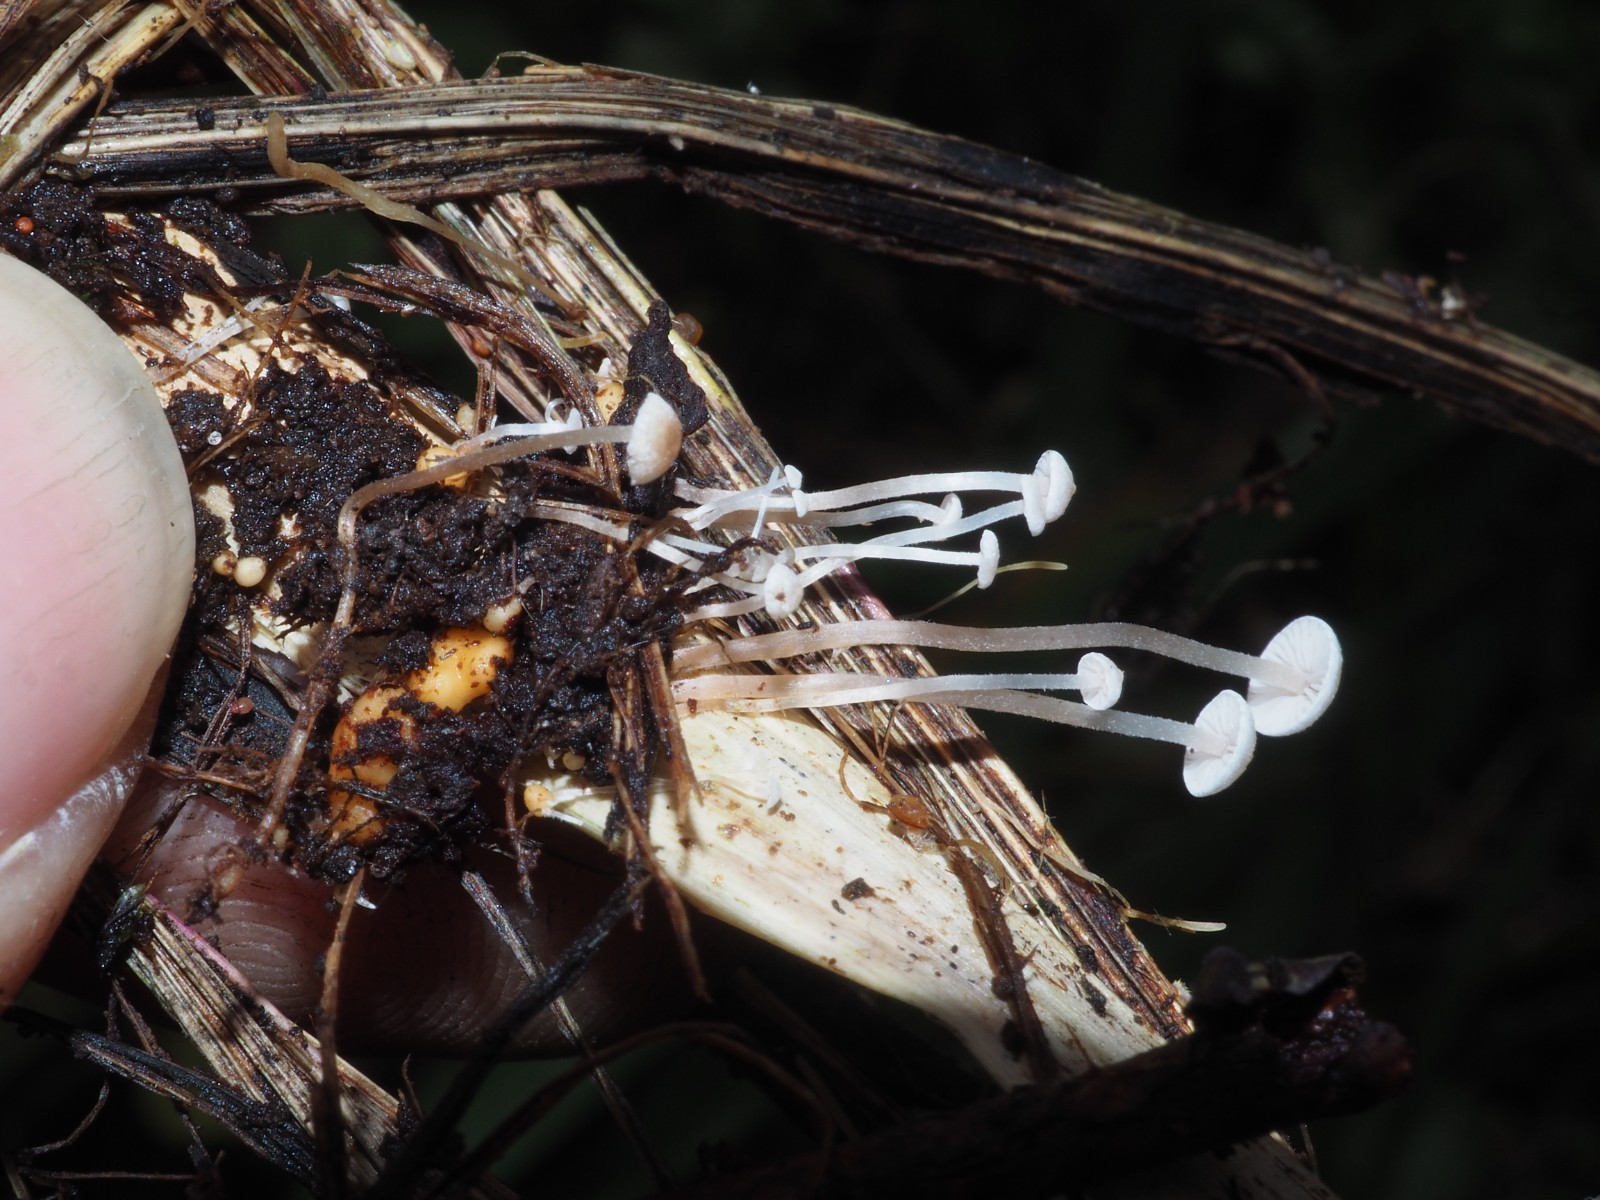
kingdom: Fungi
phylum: Basidiomycota
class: Agaricomycetes
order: Agaricales
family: Tricholomataceae
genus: Collybia
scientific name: Collybia cookei
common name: gulknoldet lighat
